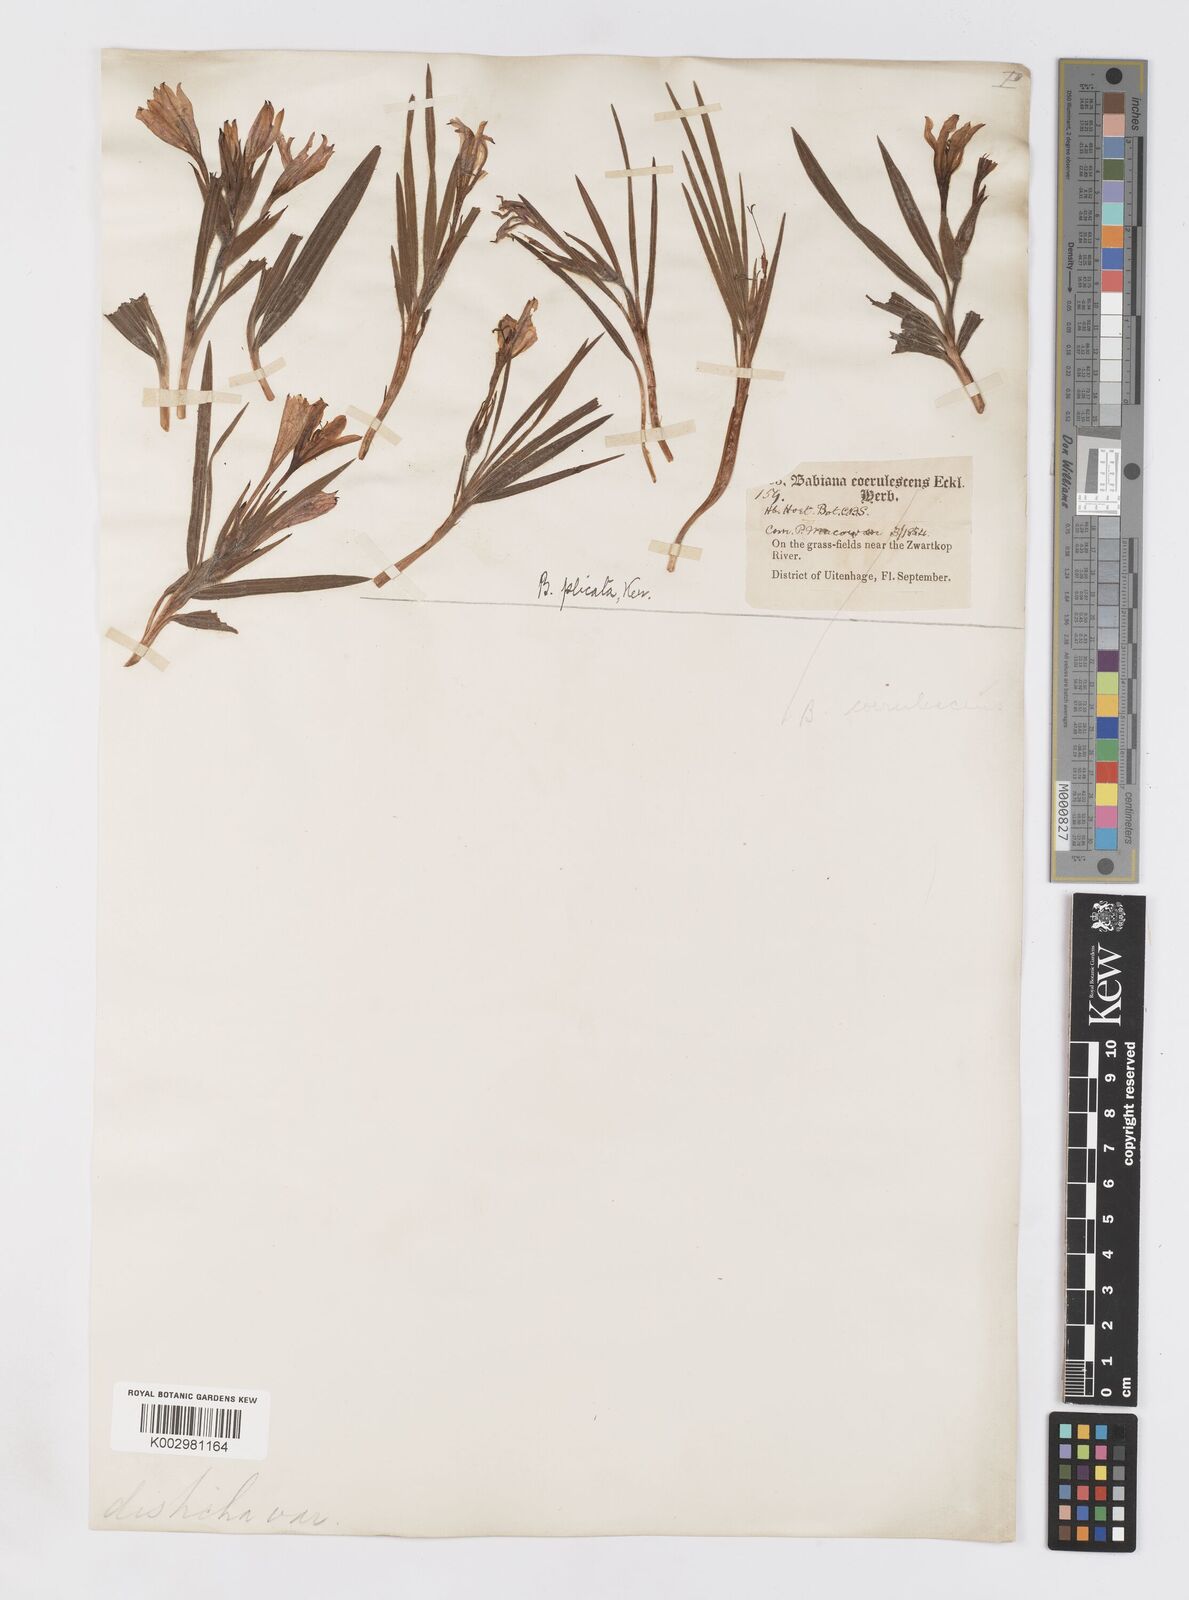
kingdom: Plantae
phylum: Tracheophyta
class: Liliopsida
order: Asparagales
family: Iridaceae
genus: Babiana
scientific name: Babiana
